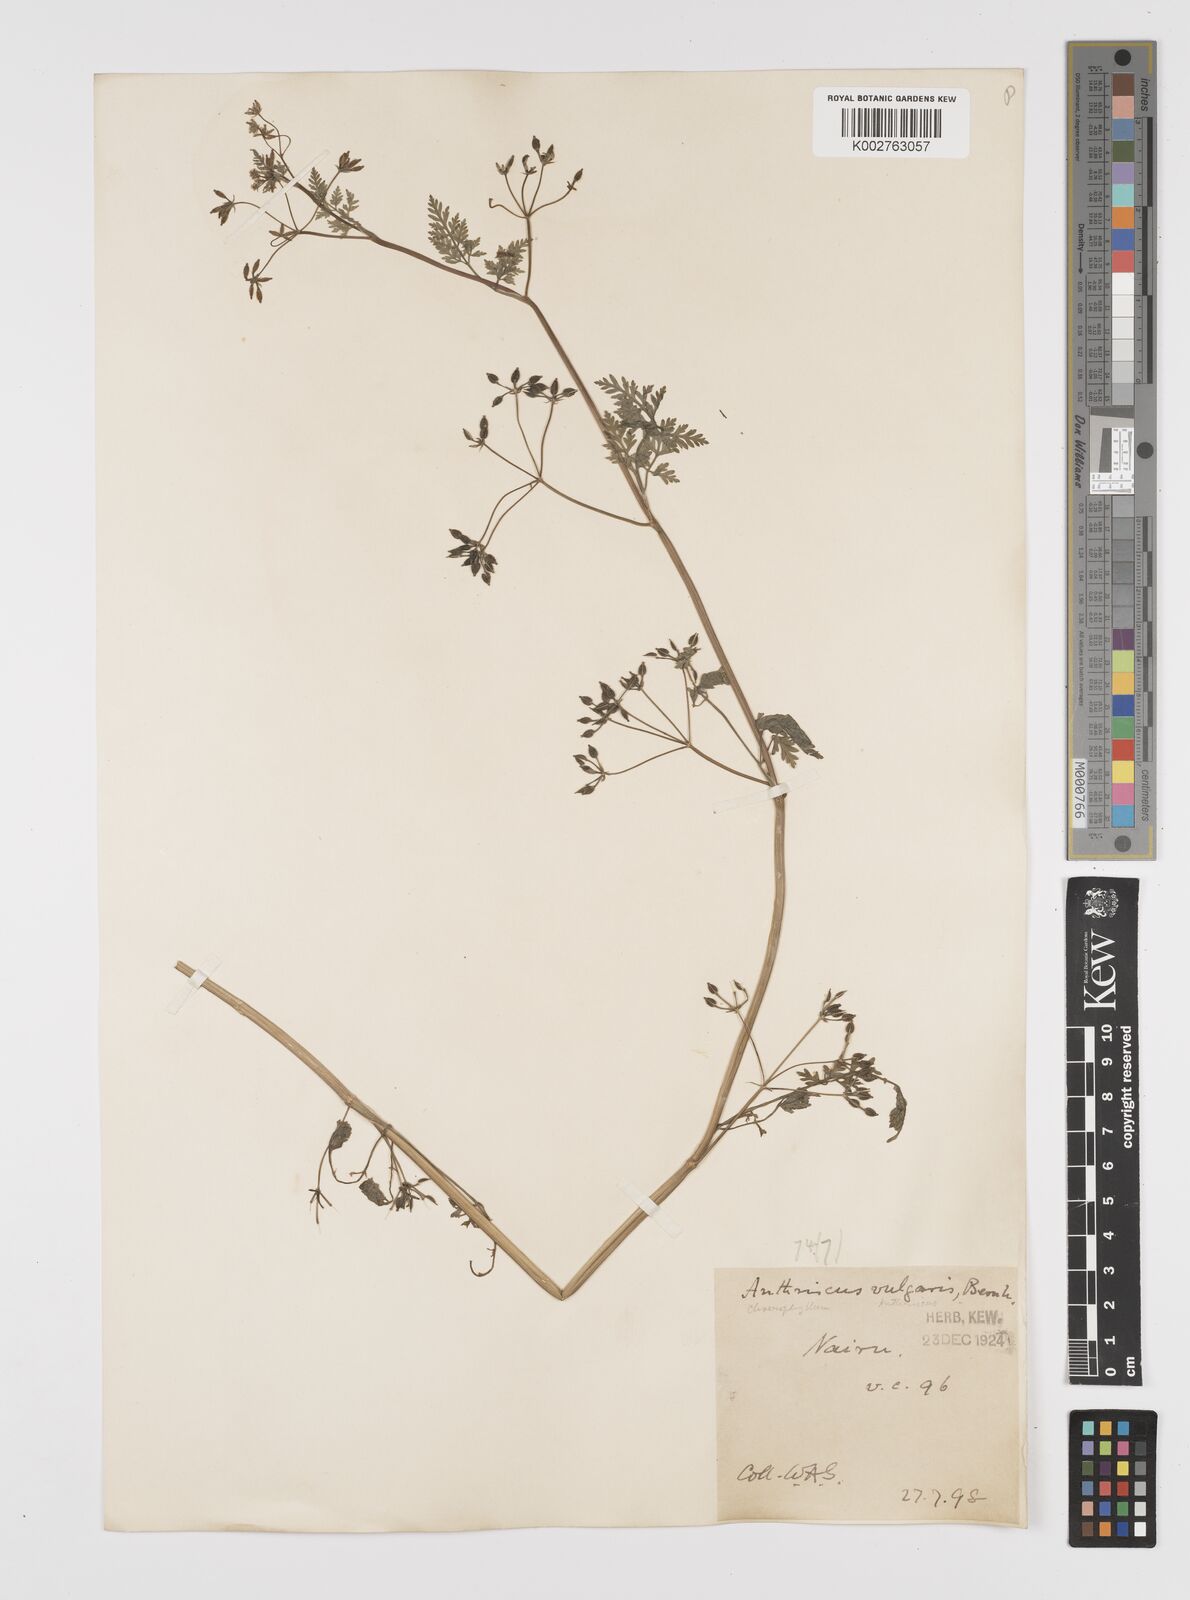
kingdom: Plantae
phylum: Tracheophyta
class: Magnoliopsida
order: Apiales
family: Apiaceae
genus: Anthriscus
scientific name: Anthriscus caucalis
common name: Bur chervil
